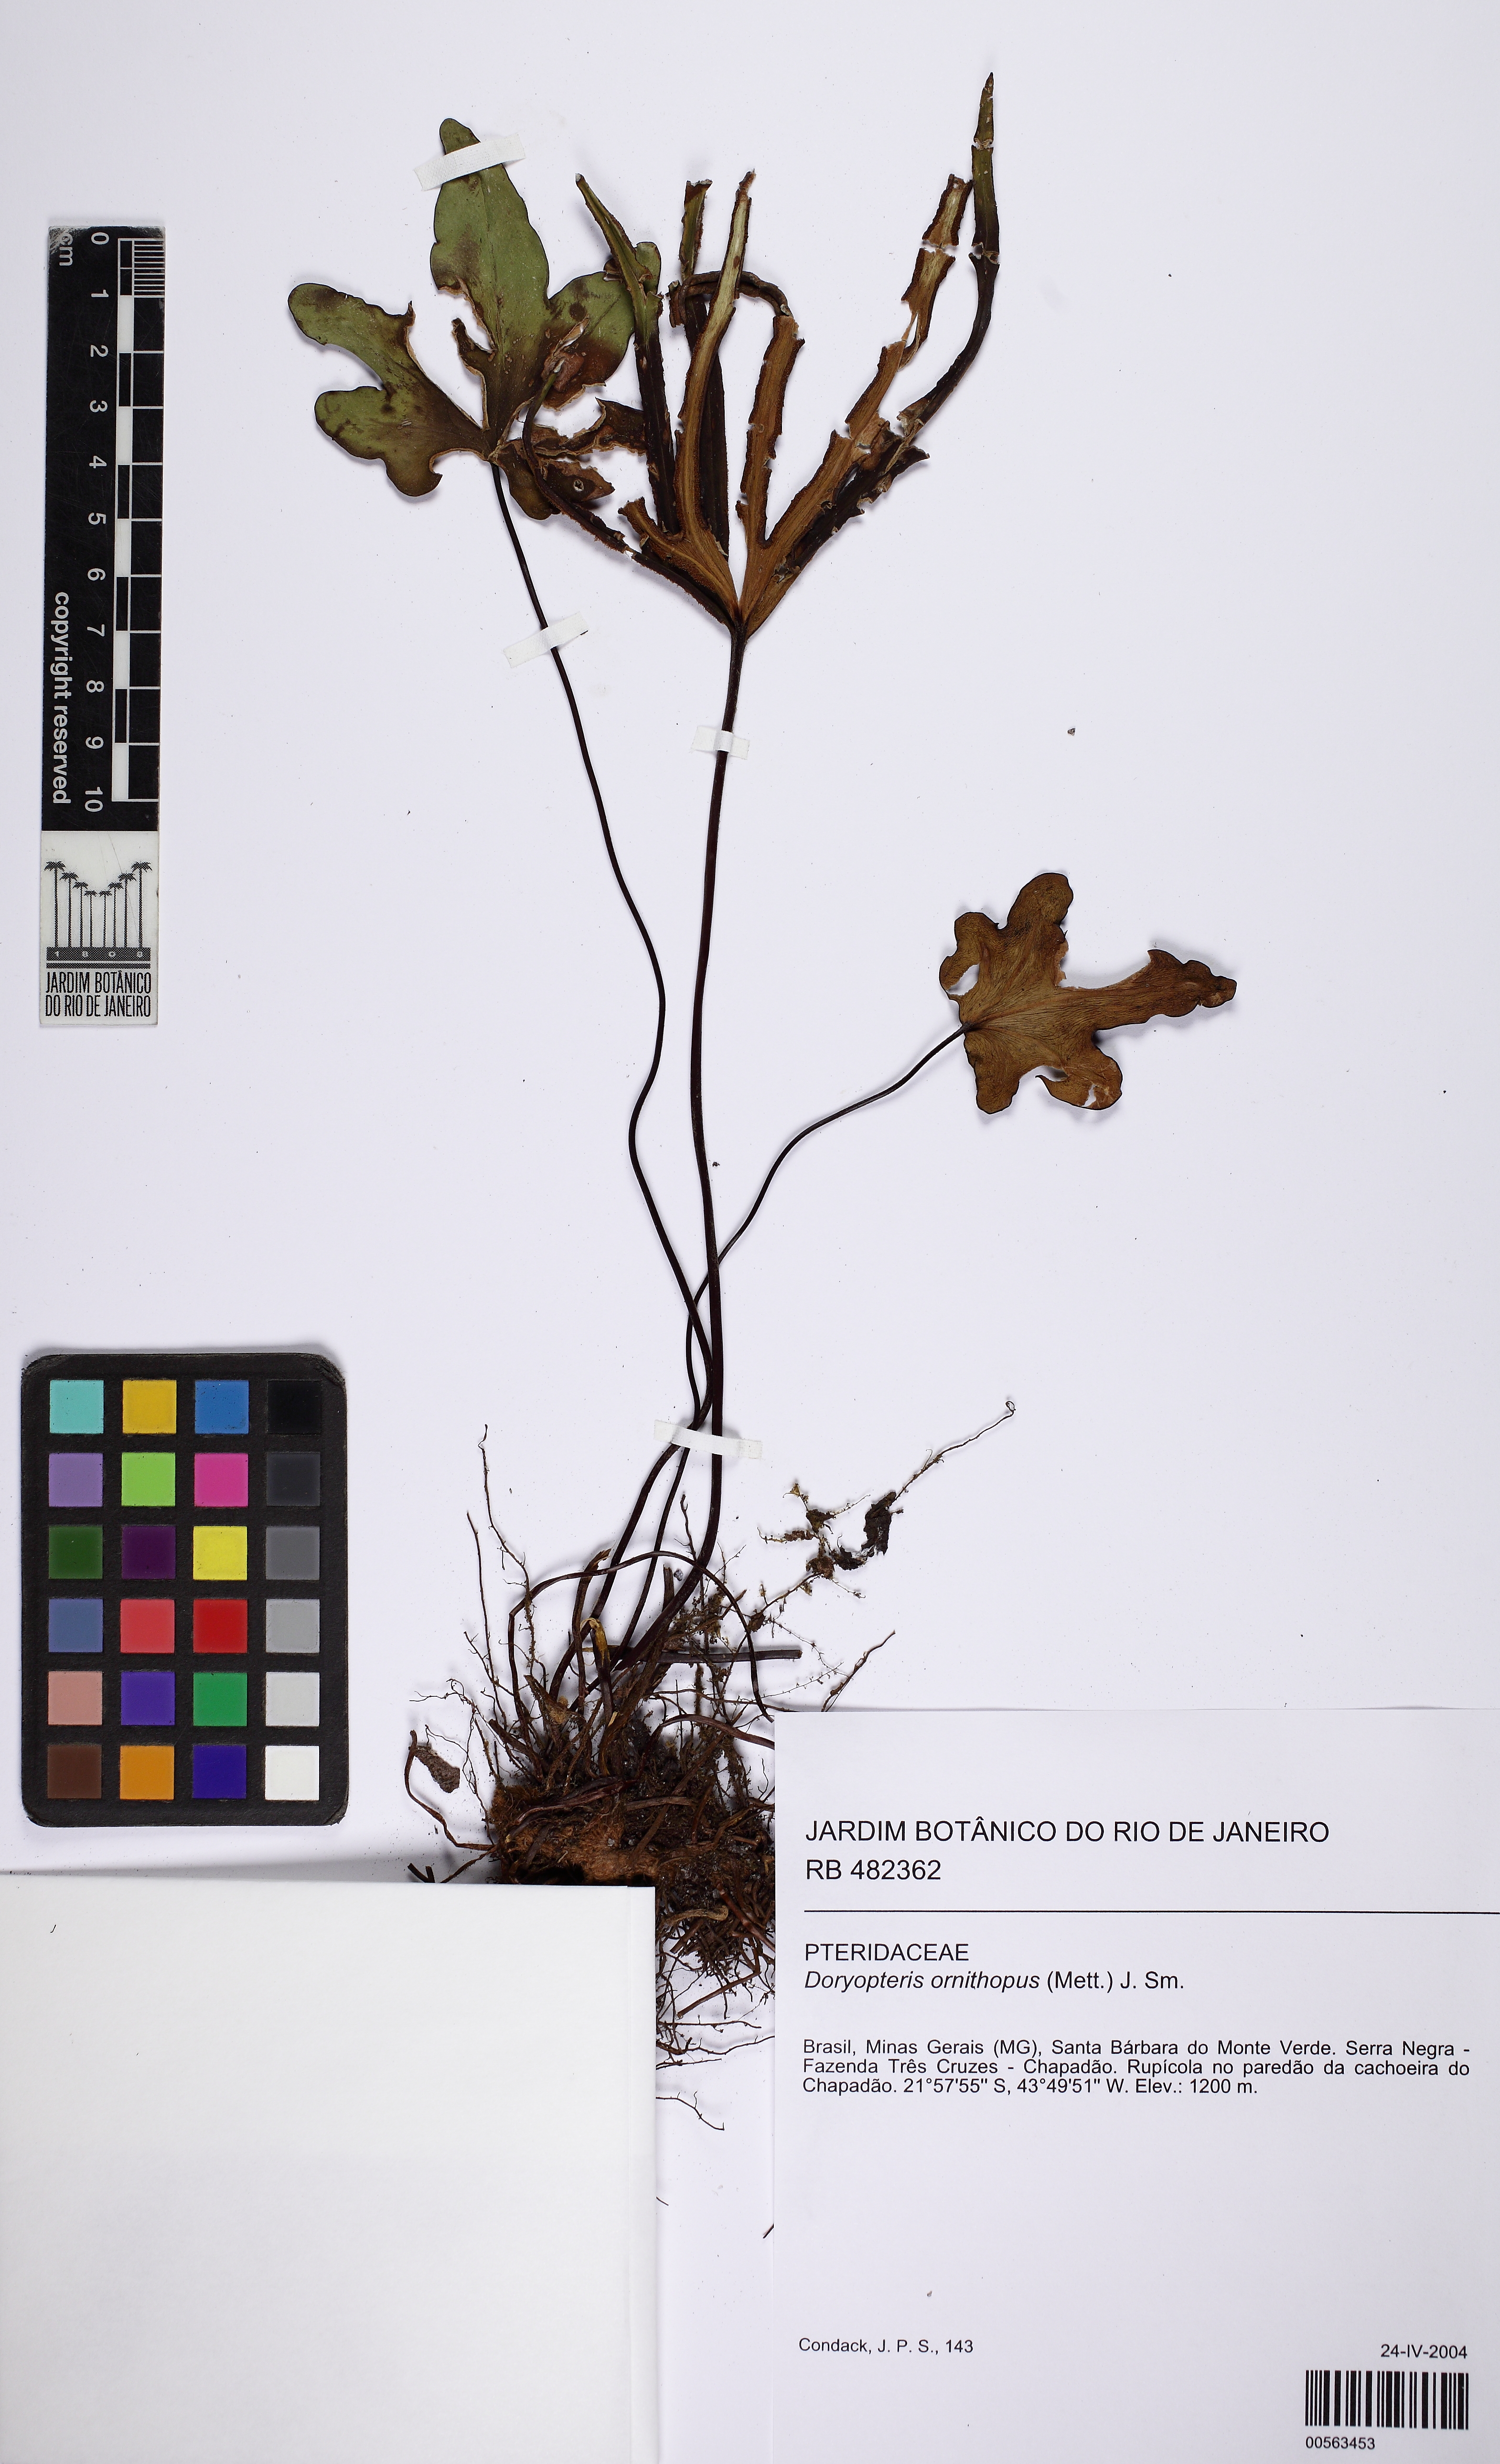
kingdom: Plantae
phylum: Tracheophyta
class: Polypodiopsida
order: Polypodiales
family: Pteridaceae
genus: Lytoneuron
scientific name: Lytoneuron ornithopus
